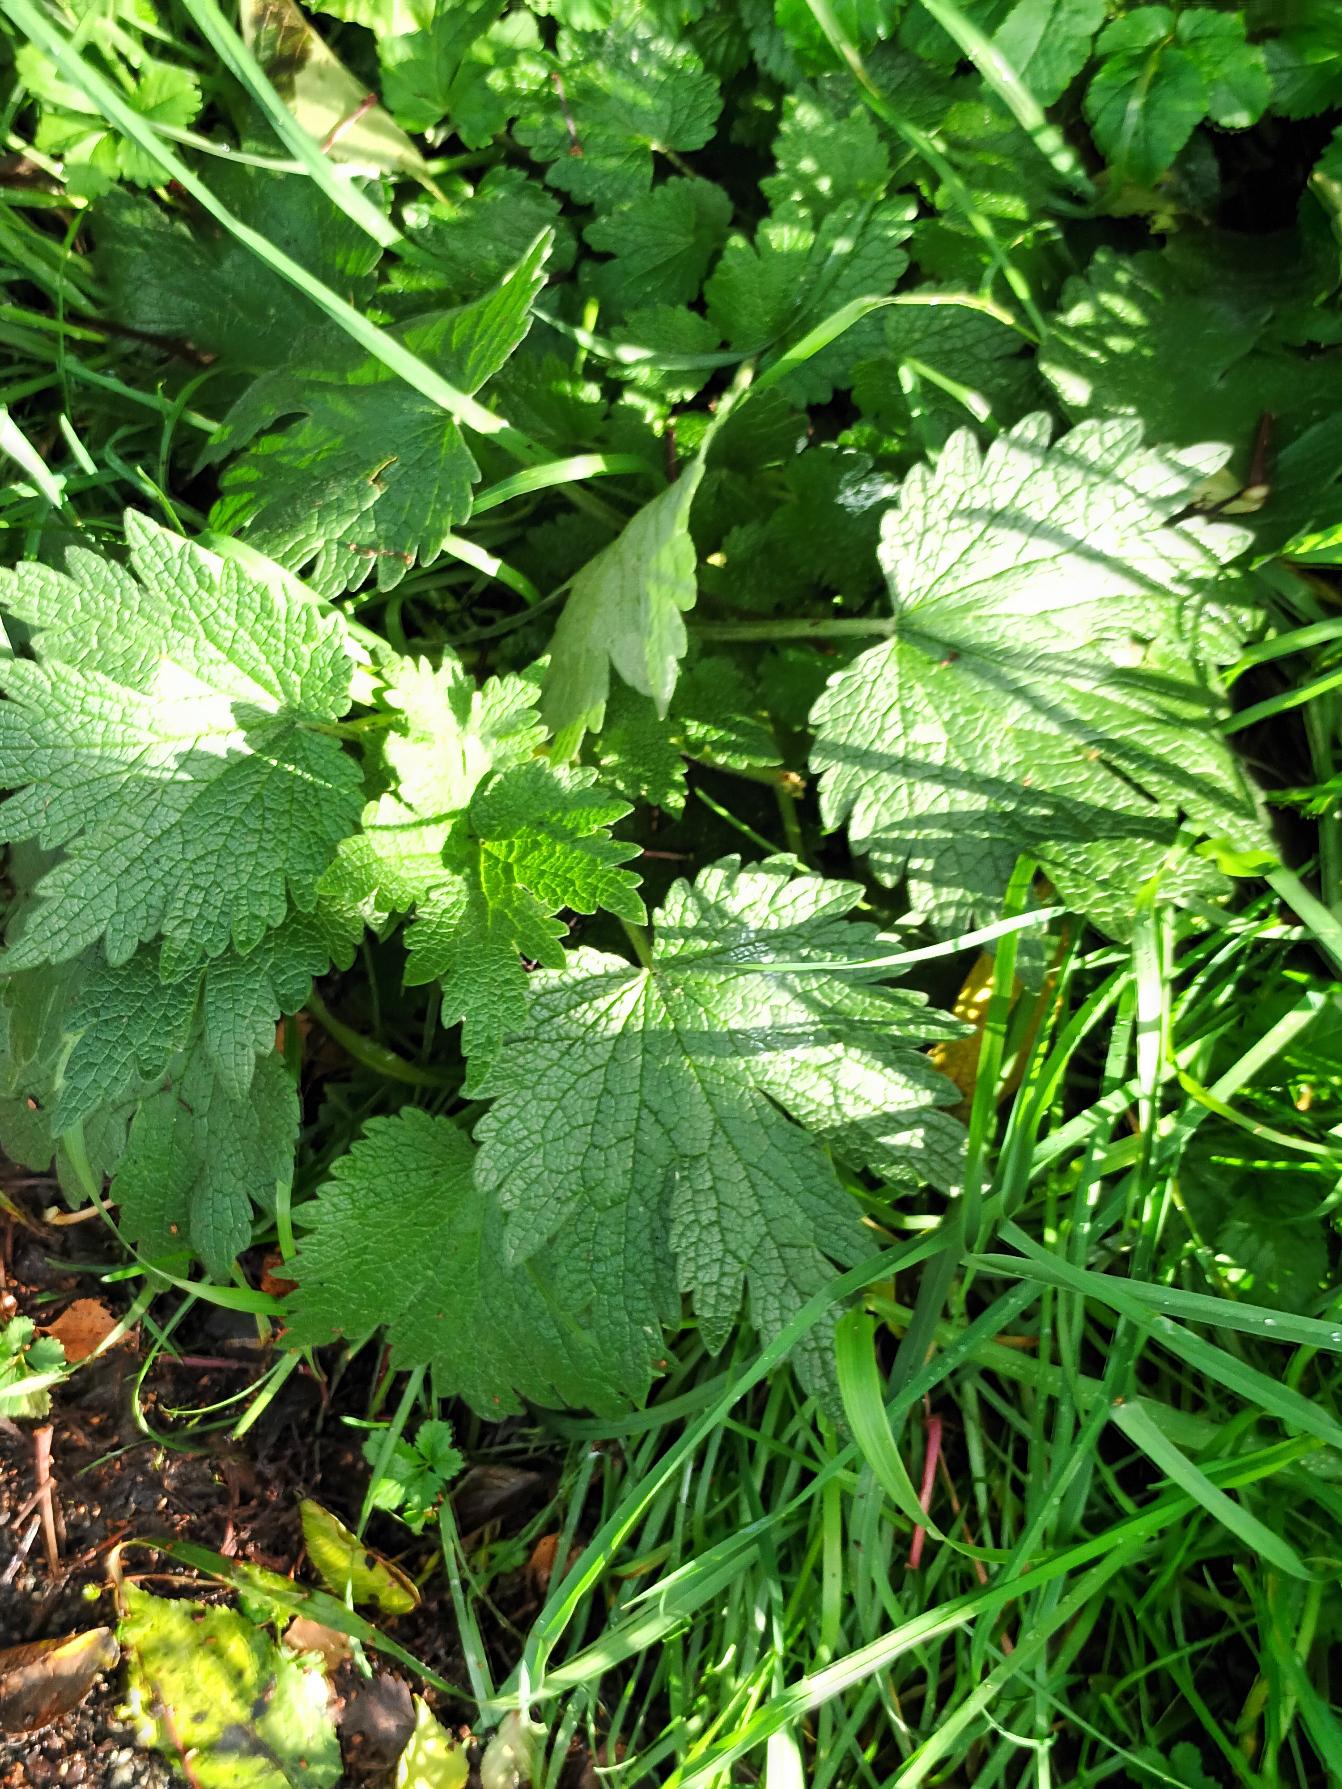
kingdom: Plantae
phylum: Tracheophyta
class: Magnoliopsida
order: Lamiales
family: Lamiaceae
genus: Leonurus
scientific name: Leonurus cardiaca
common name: Hjertespand
